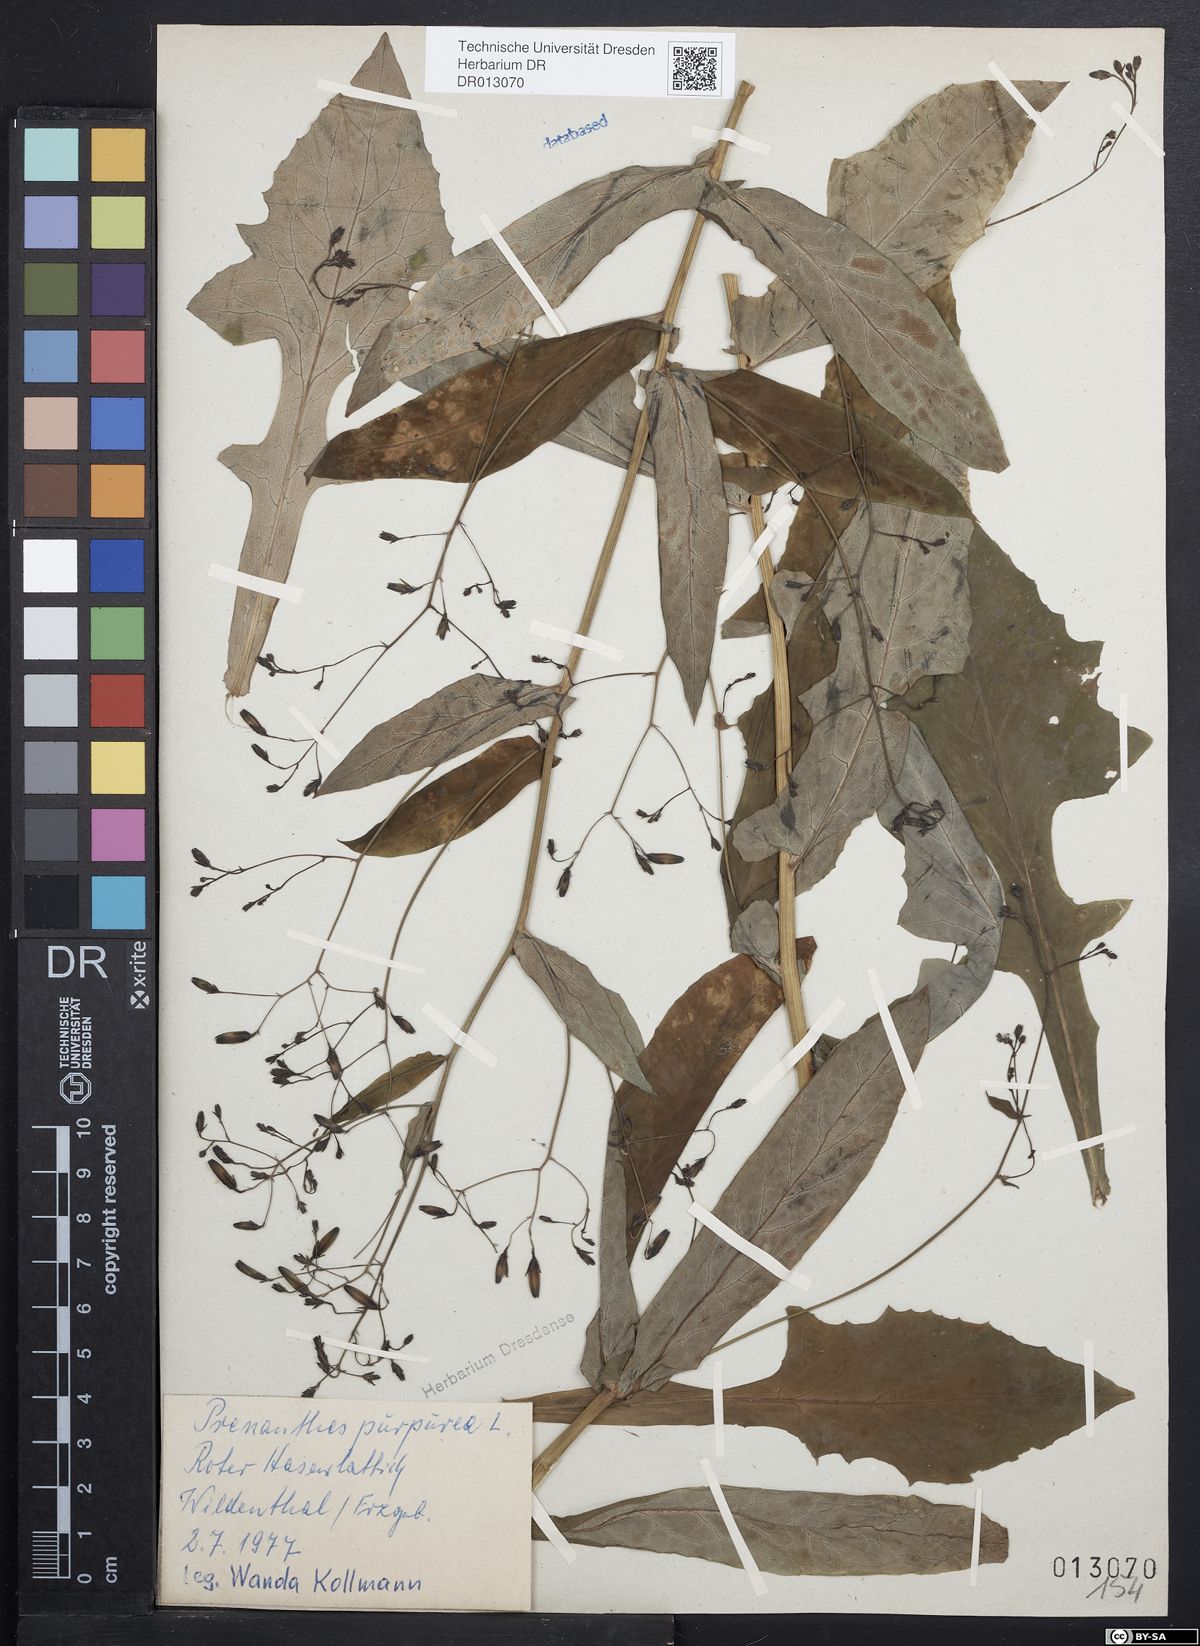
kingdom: Plantae
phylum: Tracheophyta
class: Magnoliopsida
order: Asterales
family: Asteraceae
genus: Prenanthes
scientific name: Prenanthes purpurea
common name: Purple lettuce
